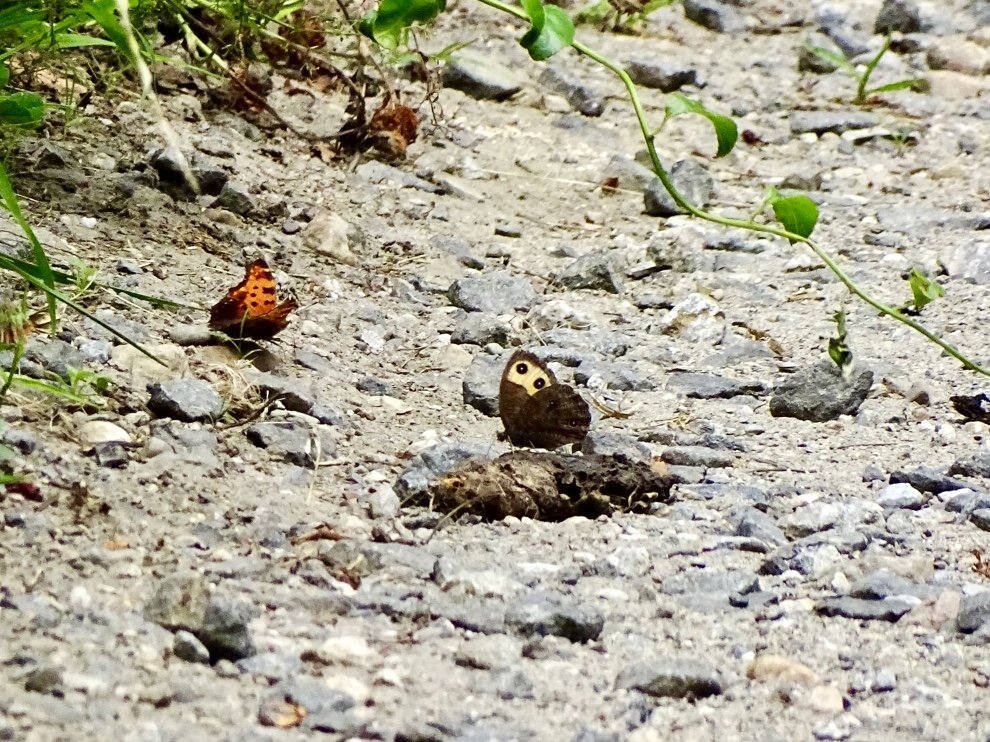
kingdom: Animalia
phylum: Arthropoda
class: Insecta
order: Lepidoptera
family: Nymphalidae
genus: Polygonia
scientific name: Polygonia comma
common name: Eastern Comma
